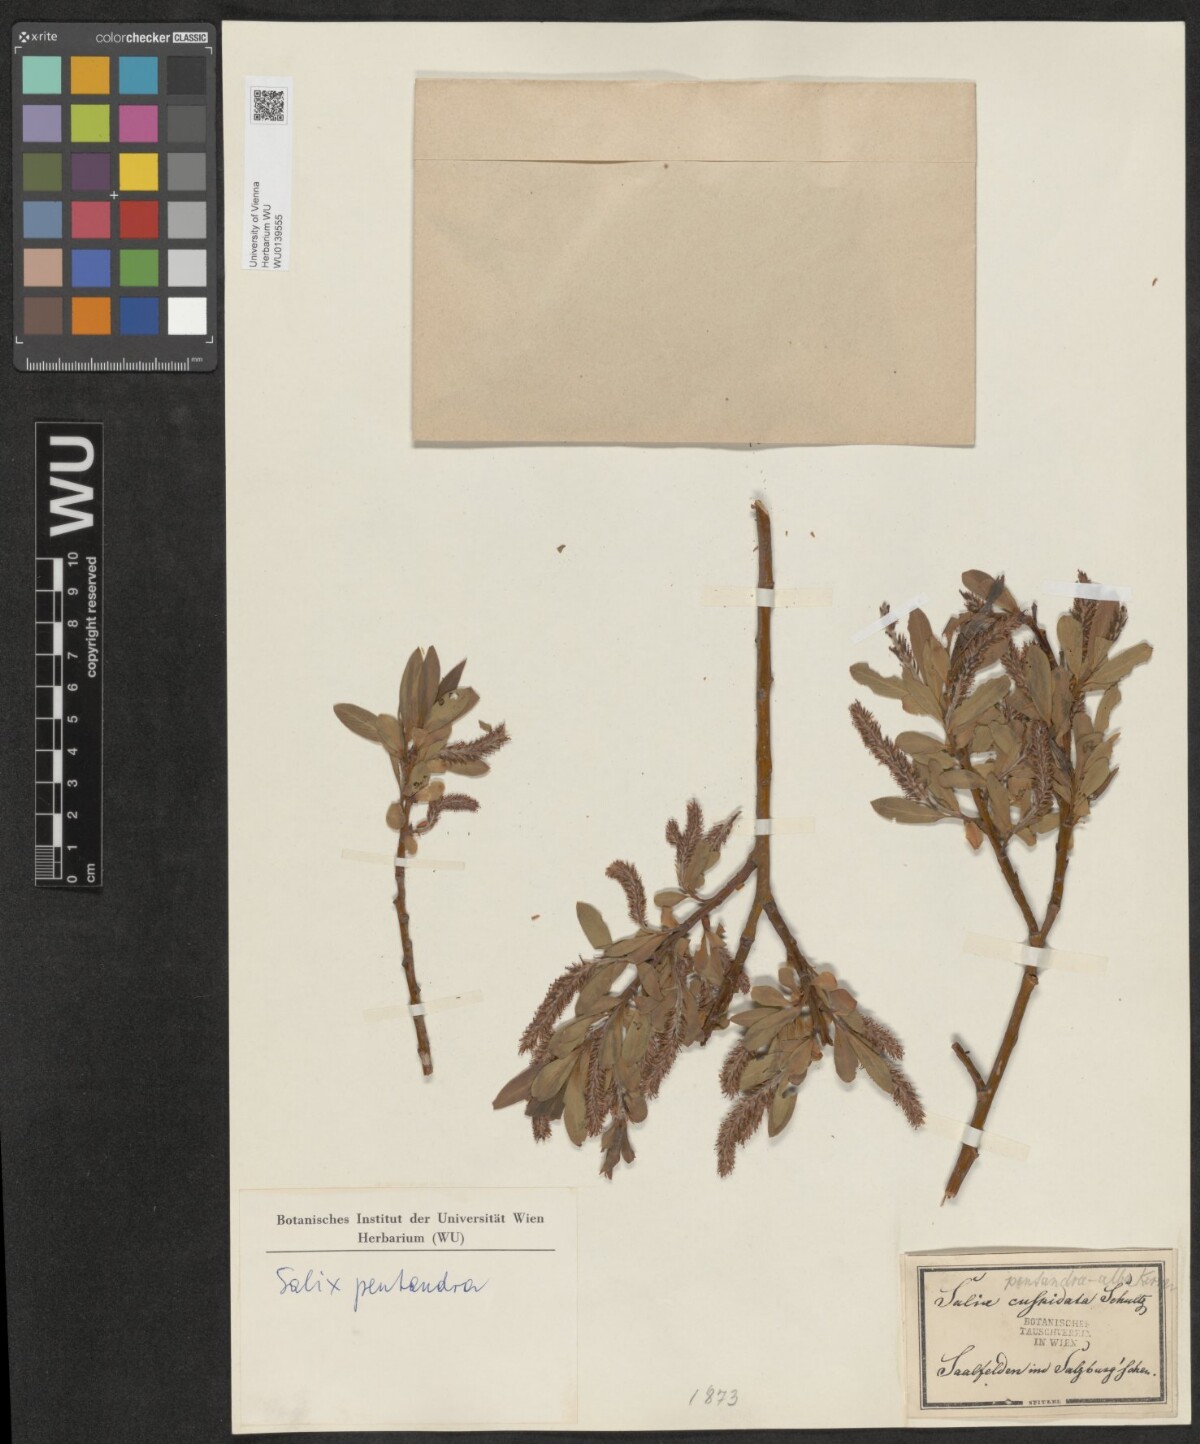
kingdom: Plantae
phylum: Tracheophyta
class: Magnoliopsida
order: Malpighiales
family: Salicaceae
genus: Salix
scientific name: Salix rubens
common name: Hybrid crack willow
